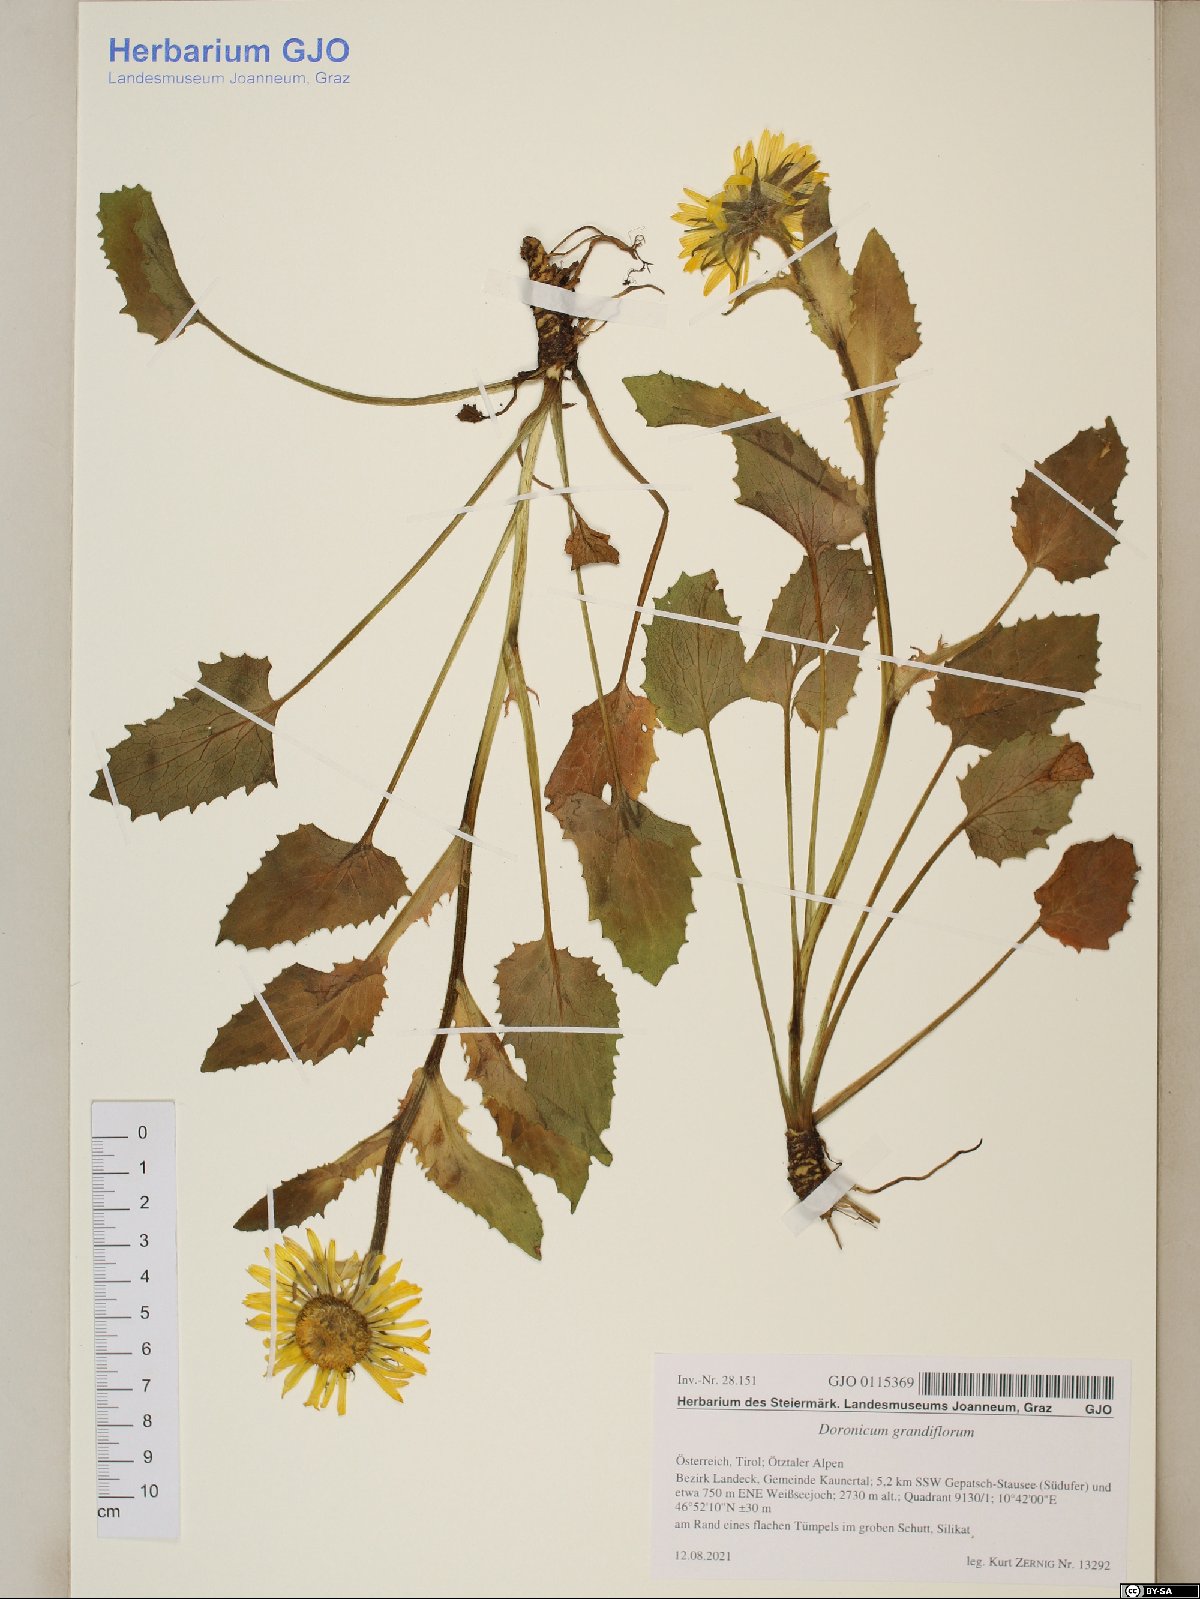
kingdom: Plantae
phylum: Tracheophyta
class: Magnoliopsida
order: Asterales
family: Asteraceae
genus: Doronicum
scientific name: Doronicum grandiflorum
